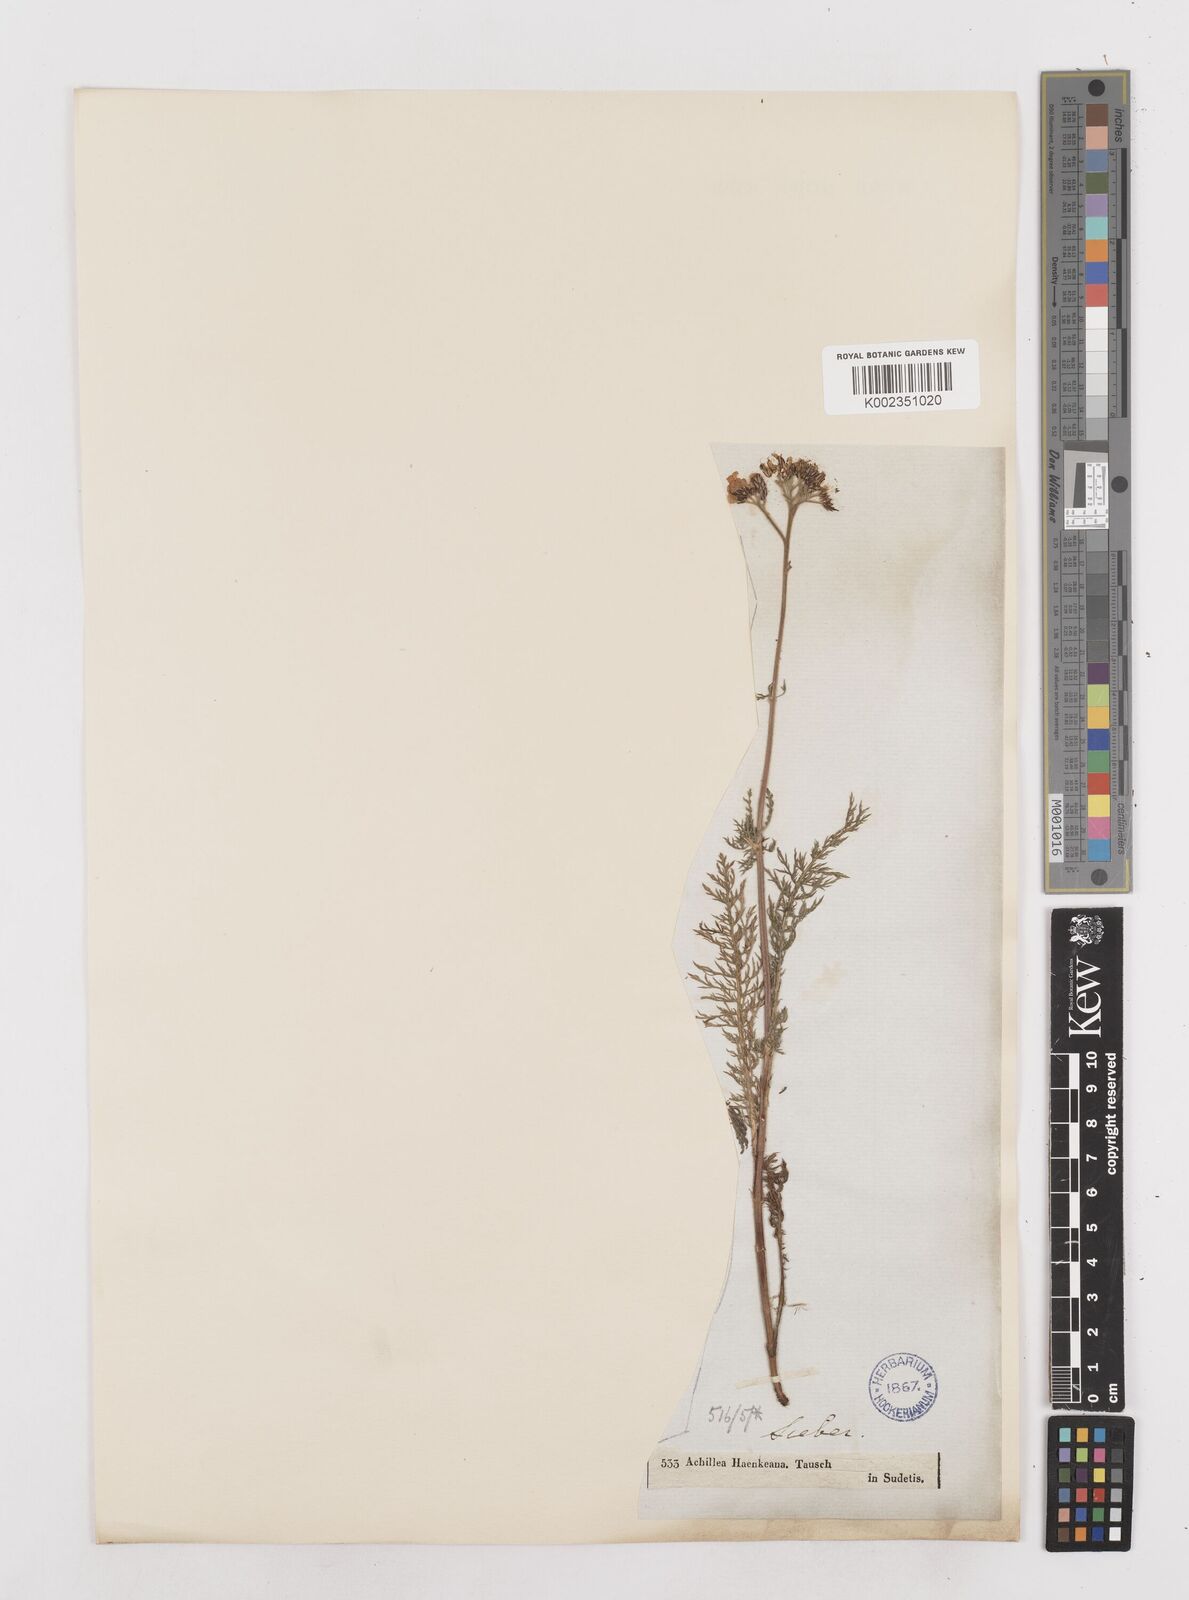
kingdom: Plantae
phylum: Tracheophyta
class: Magnoliopsida
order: Asterales
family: Asteraceae
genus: Achillea
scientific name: Achillea millefolium
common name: Yarrow
